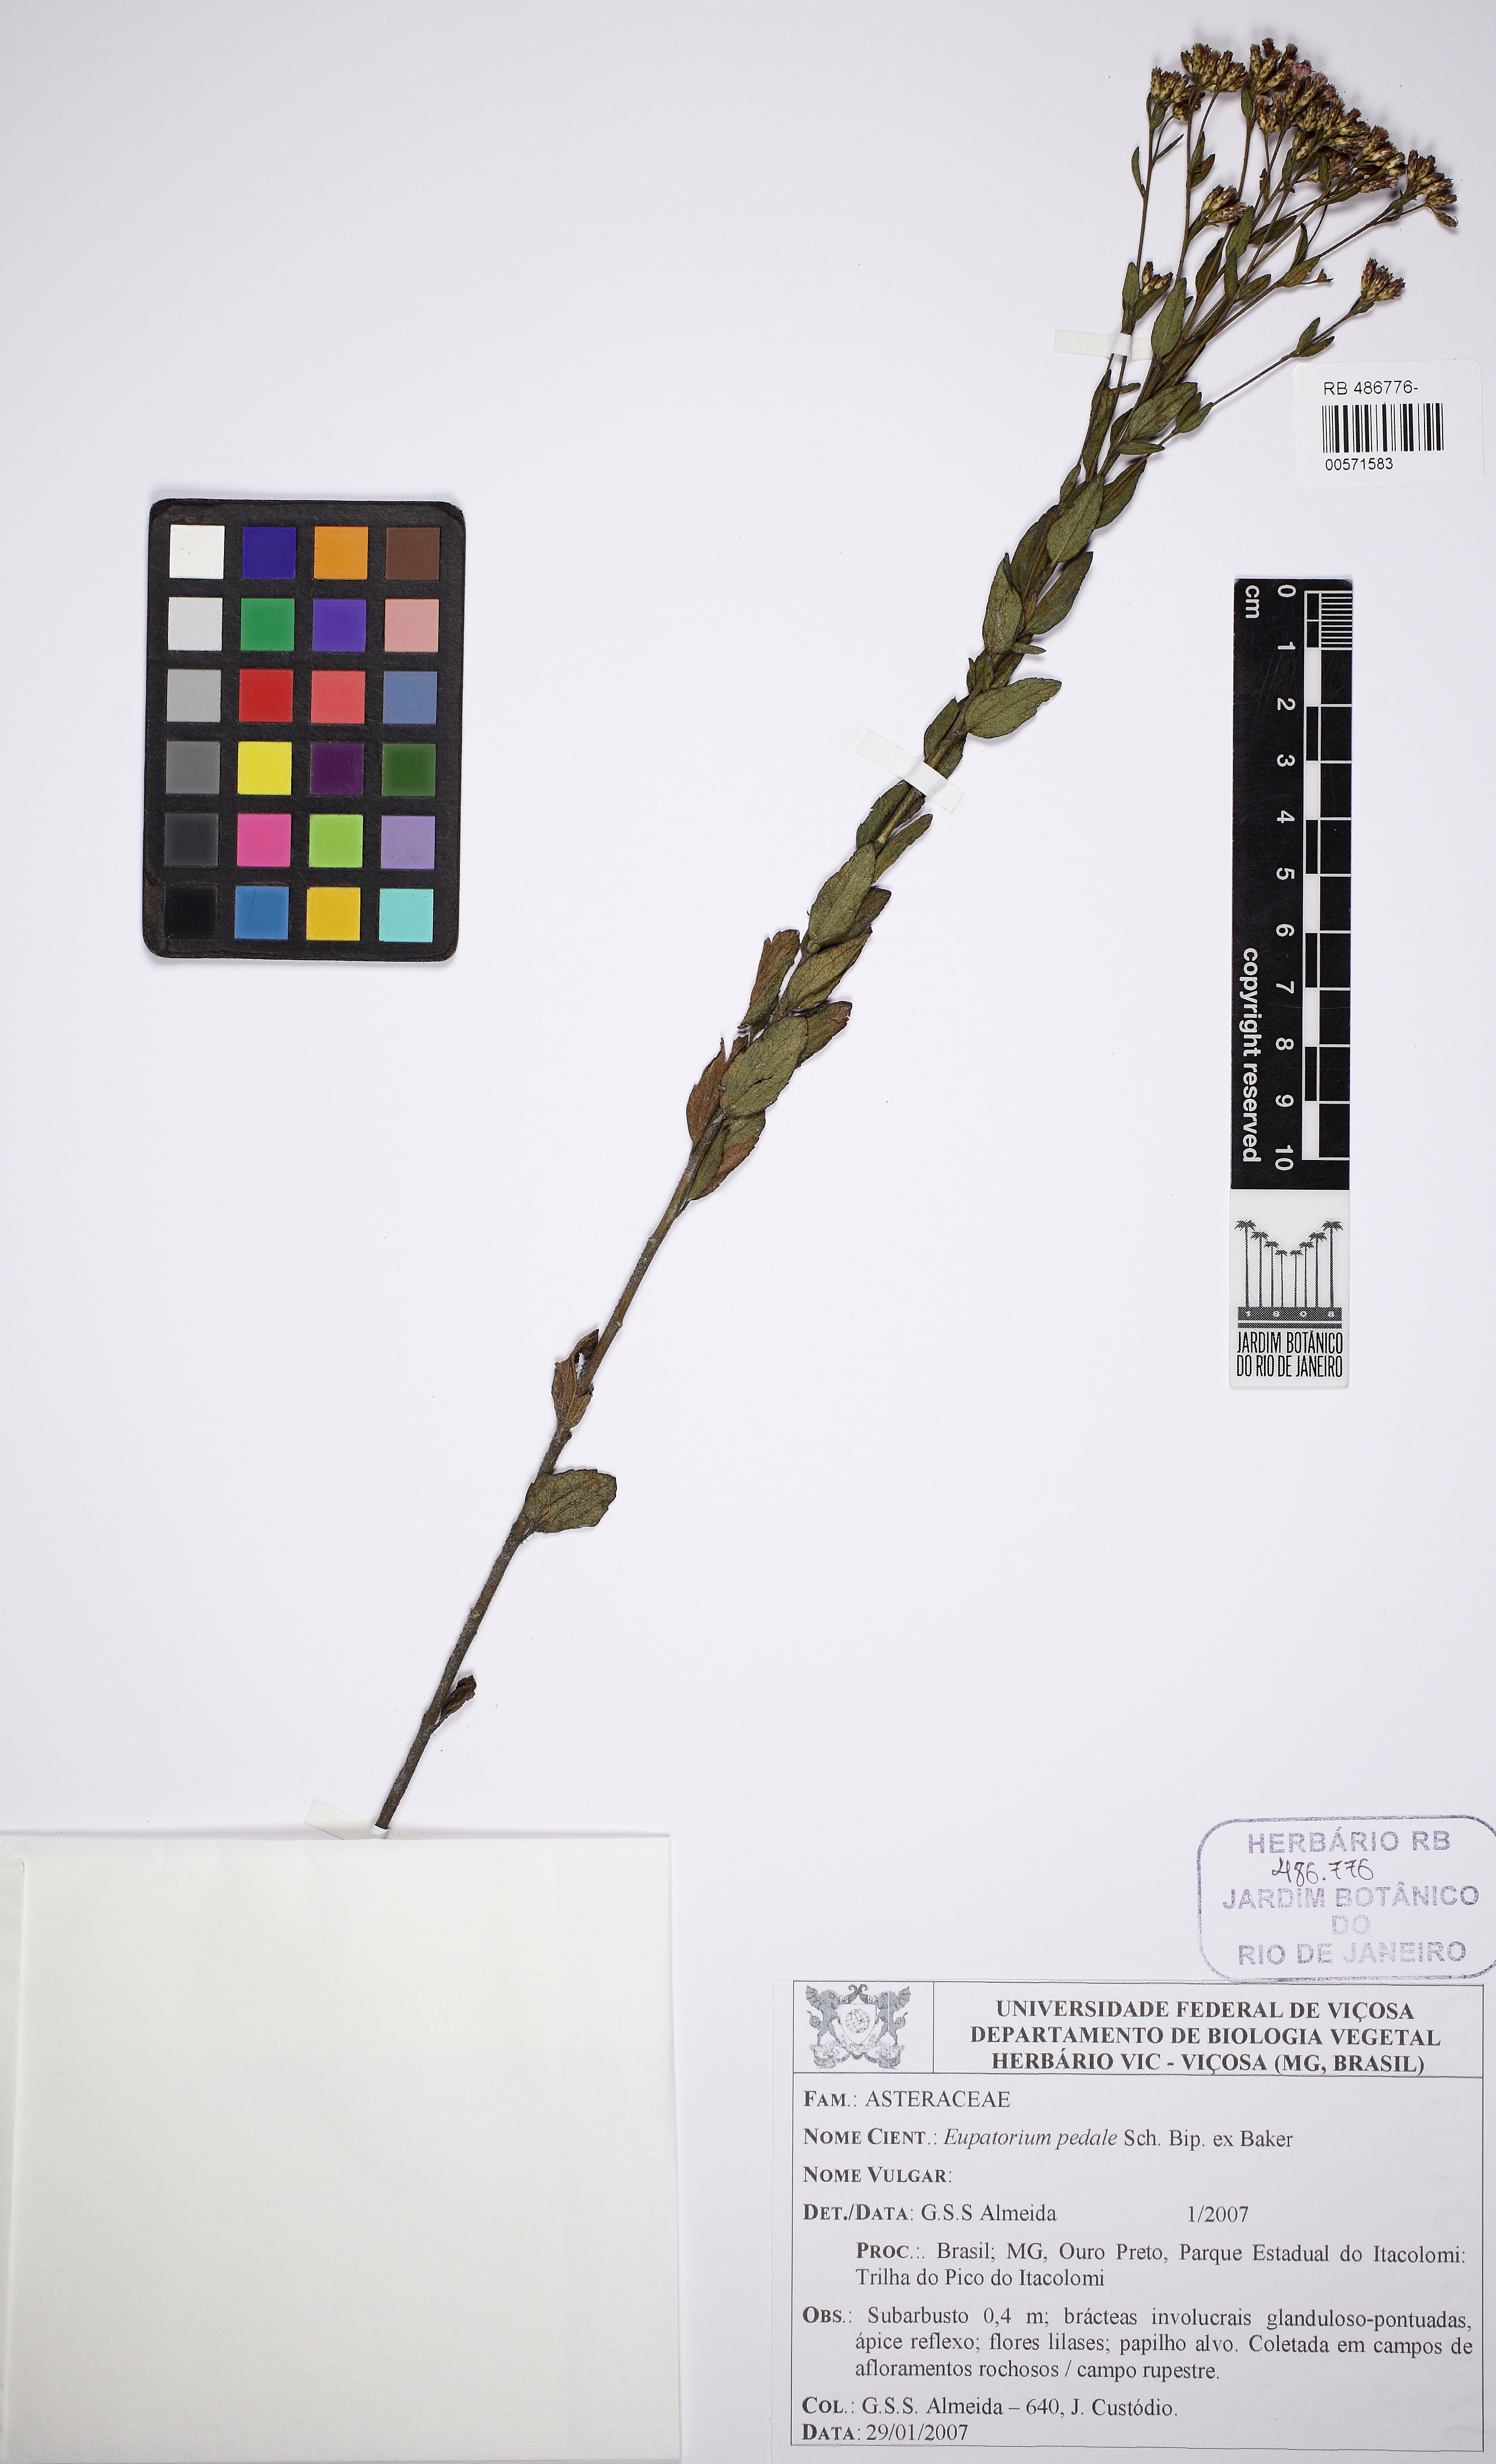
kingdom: Plantae
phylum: Tracheophyta
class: Magnoliopsida
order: Asterales
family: Asteraceae
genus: Chromolaena
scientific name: Chromolaena pedalis
